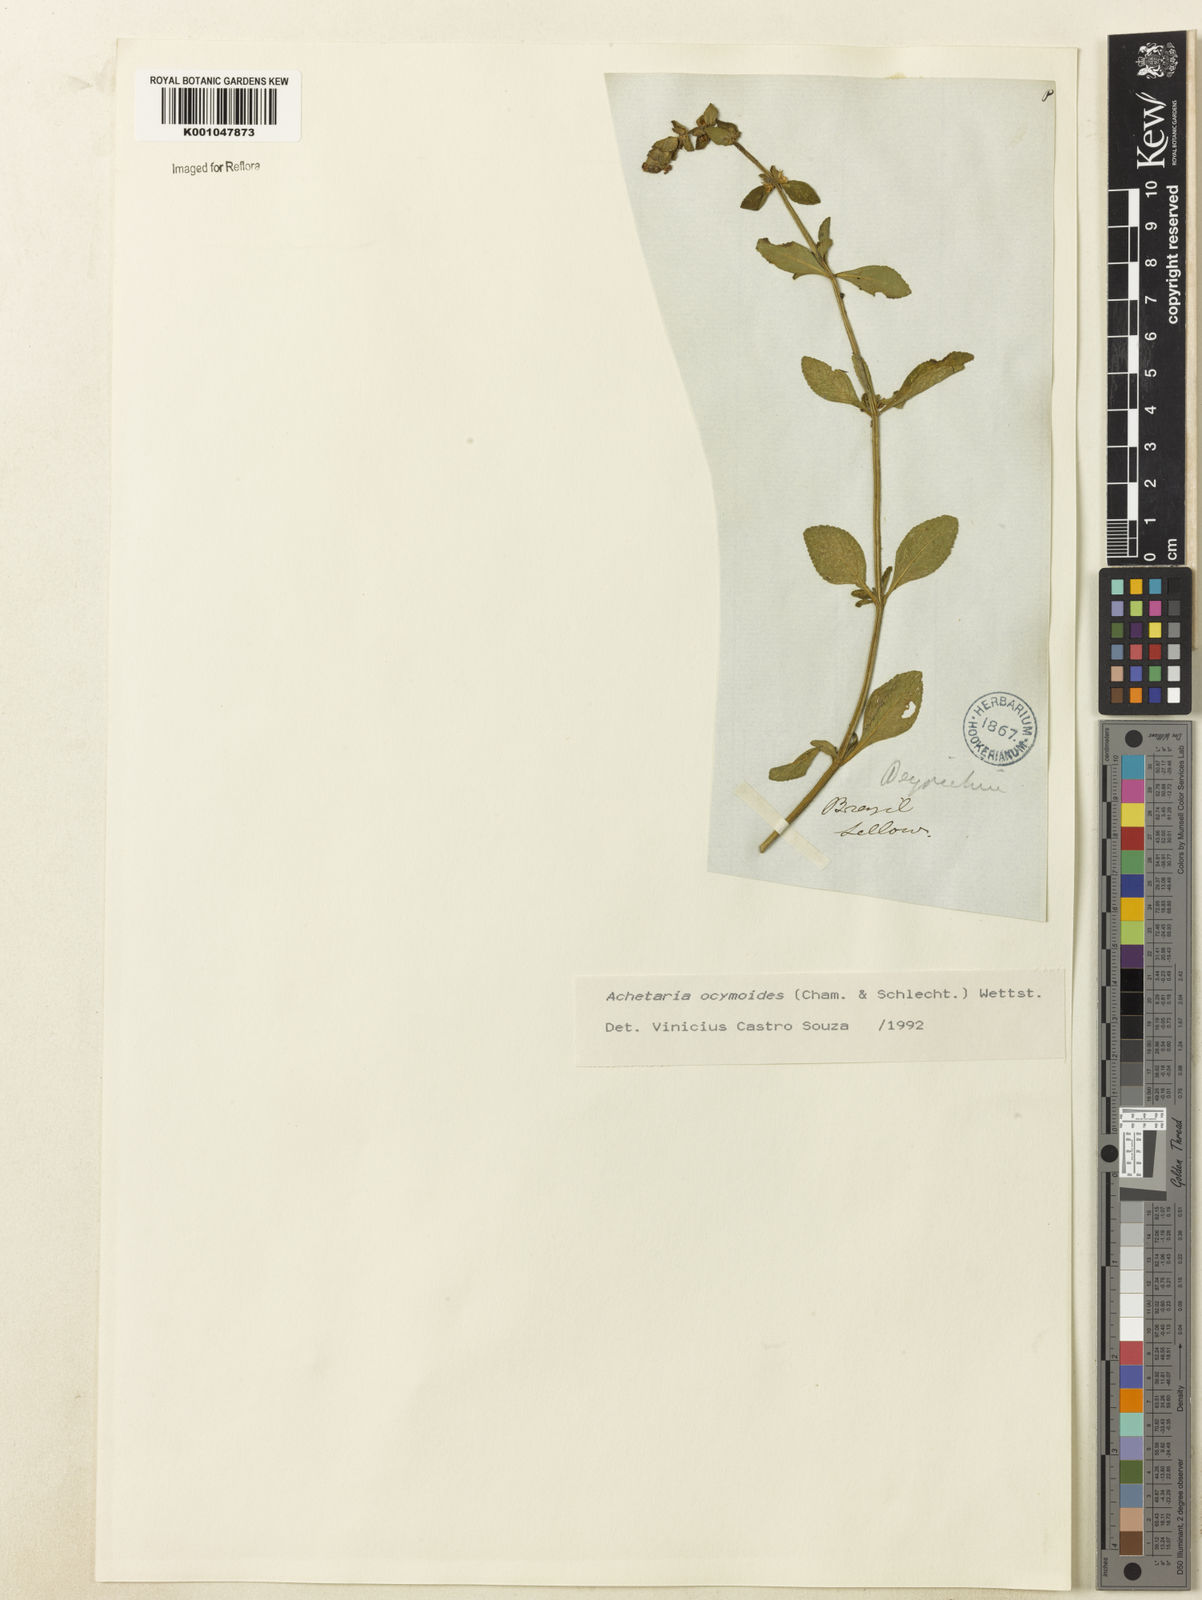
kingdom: Plantae
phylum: Tracheophyta
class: Magnoliopsida
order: Lamiales
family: Plantaginaceae
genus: Matourea
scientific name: Matourea ocymoides
